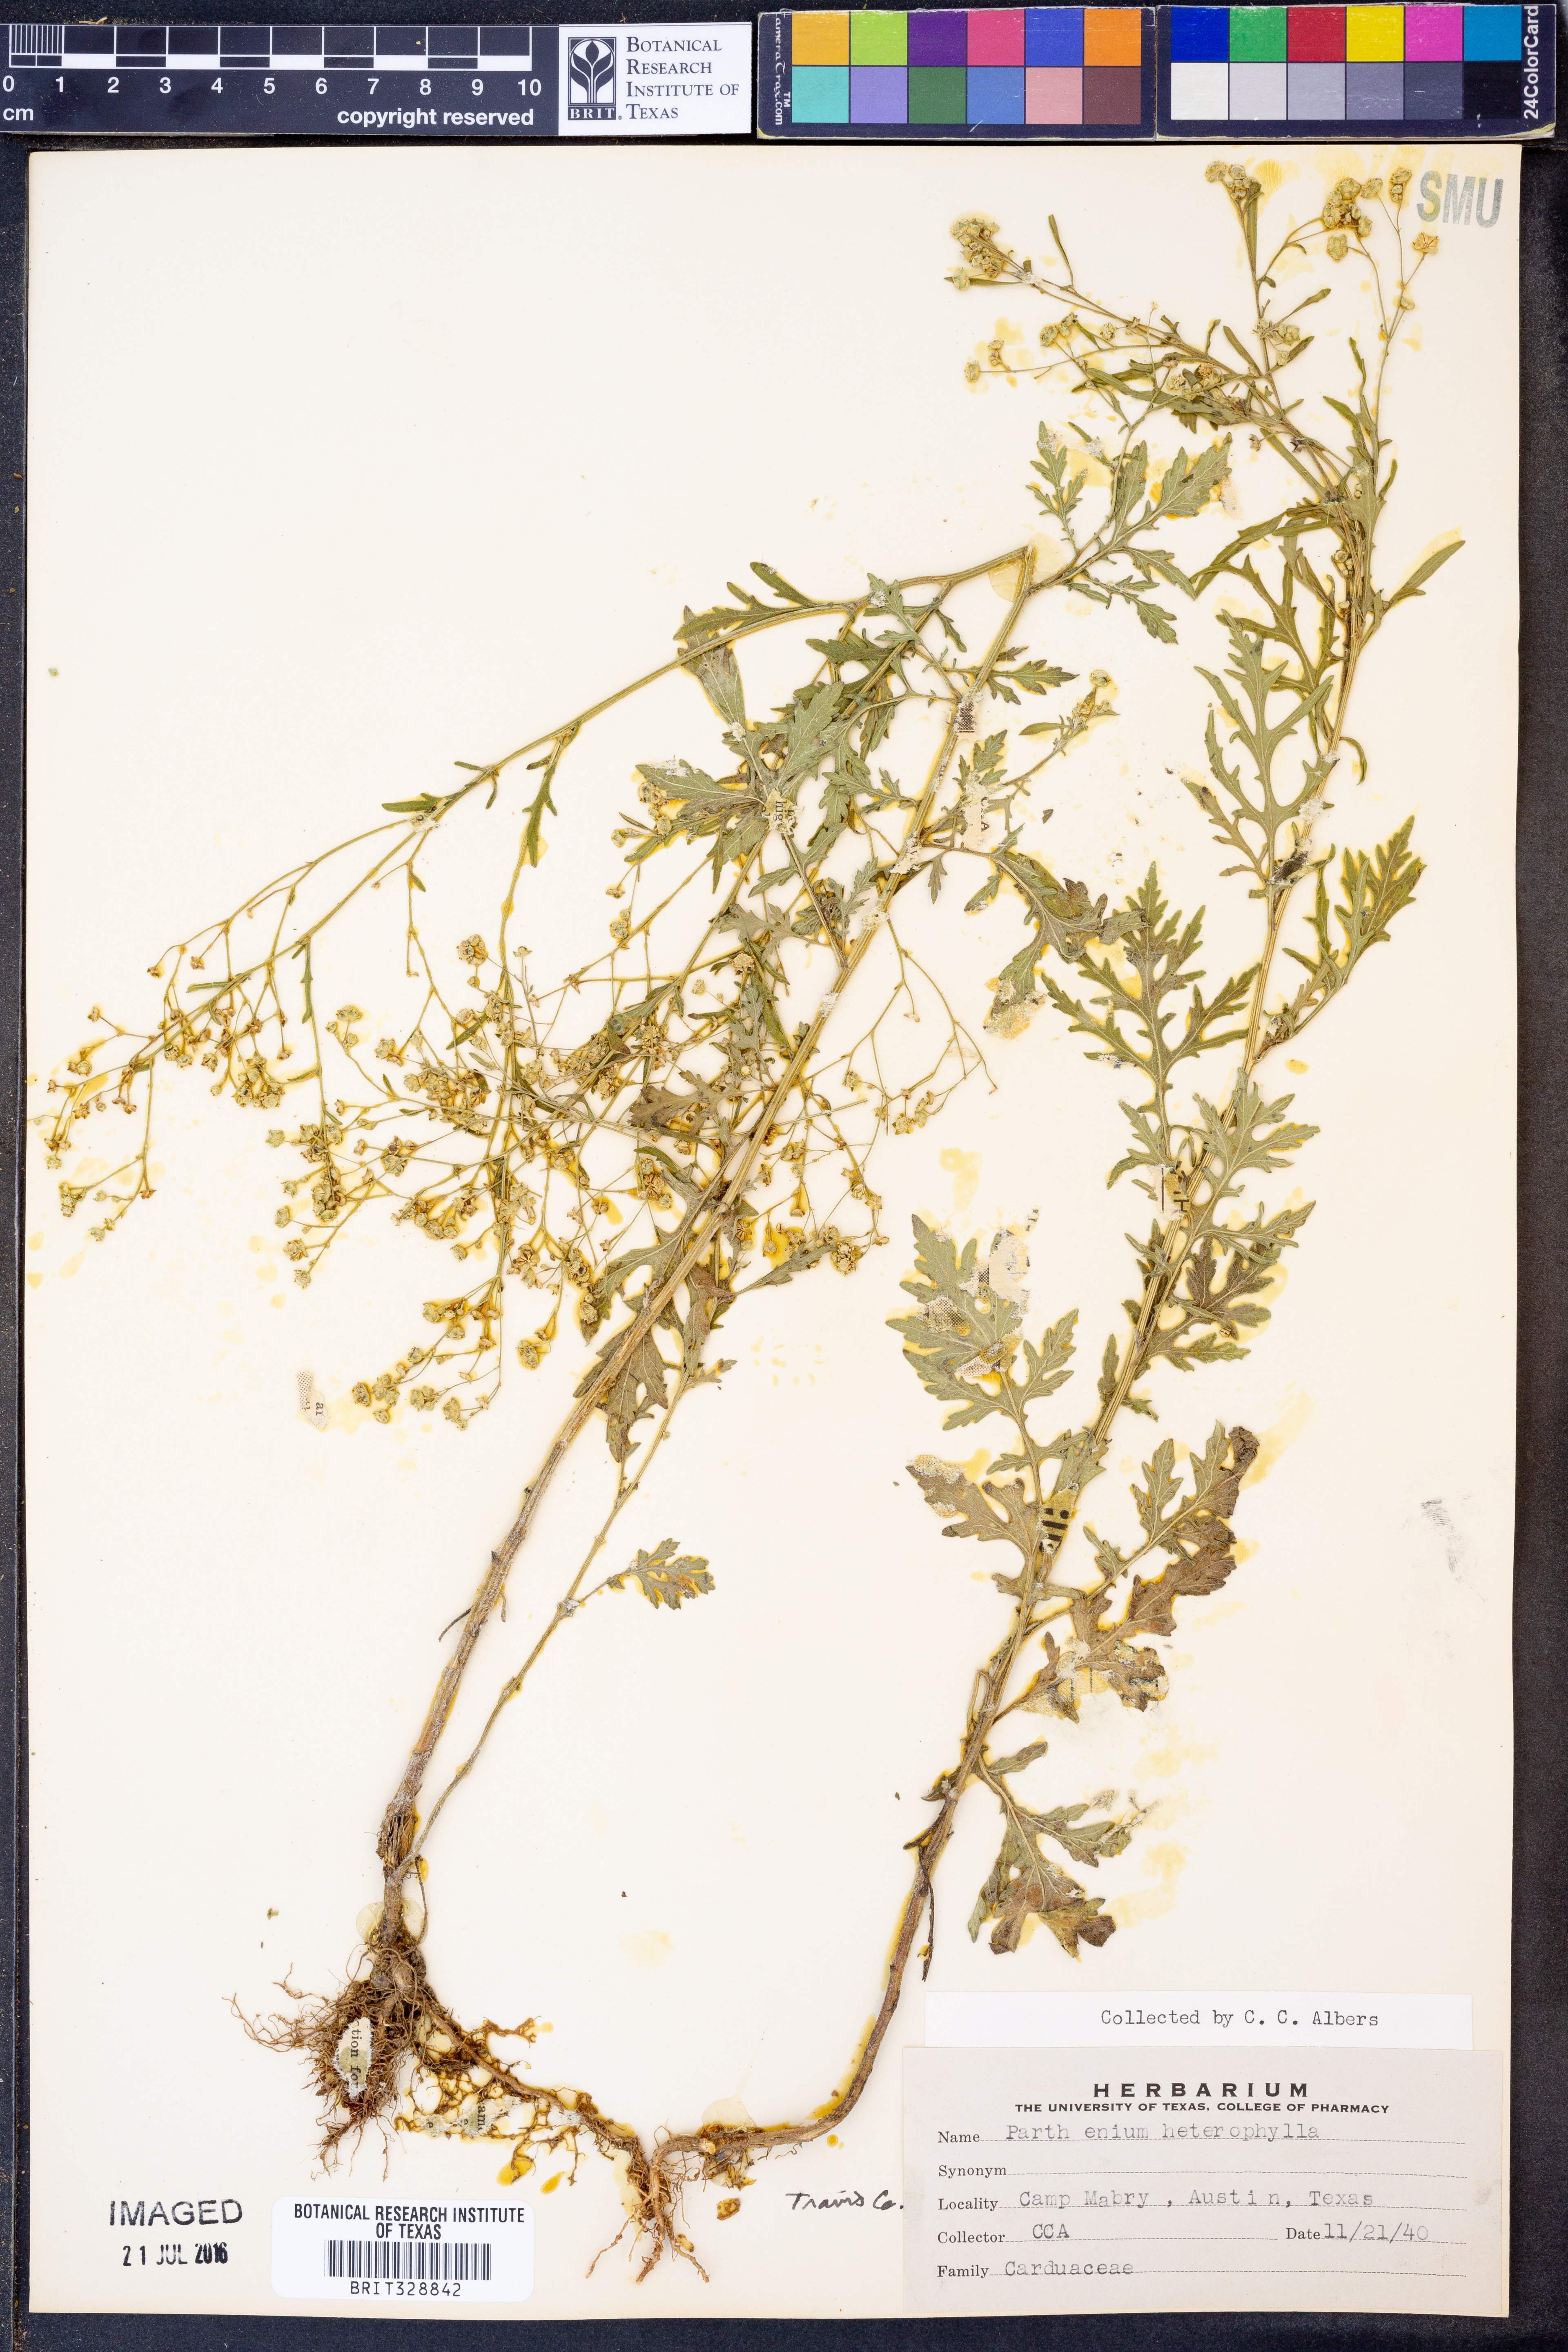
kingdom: Plantae
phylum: Tracheophyta
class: Magnoliopsida
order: Asterales
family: Asteraceae
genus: Parthenium
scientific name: Parthenium hysterophorus
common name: Santa maria feverfew
